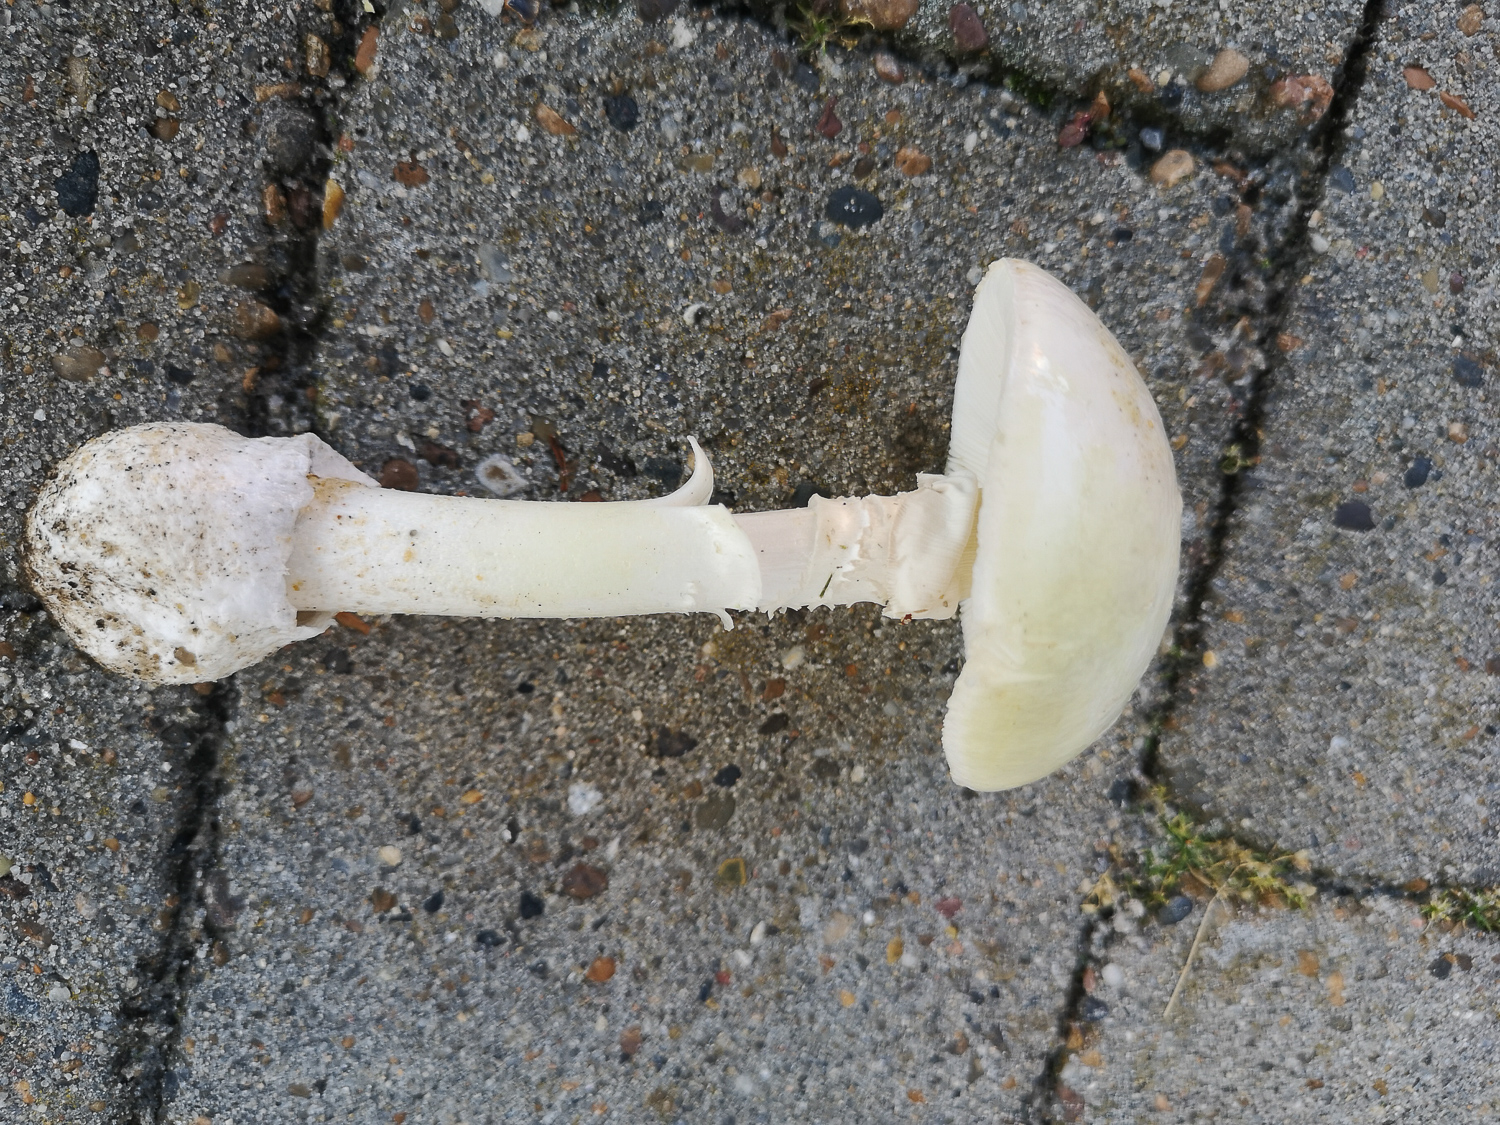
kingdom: Fungi
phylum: Basidiomycota
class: Agaricomycetes
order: Agaricales
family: Amanitaceae
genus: Amanita
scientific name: Amanita phalloides
